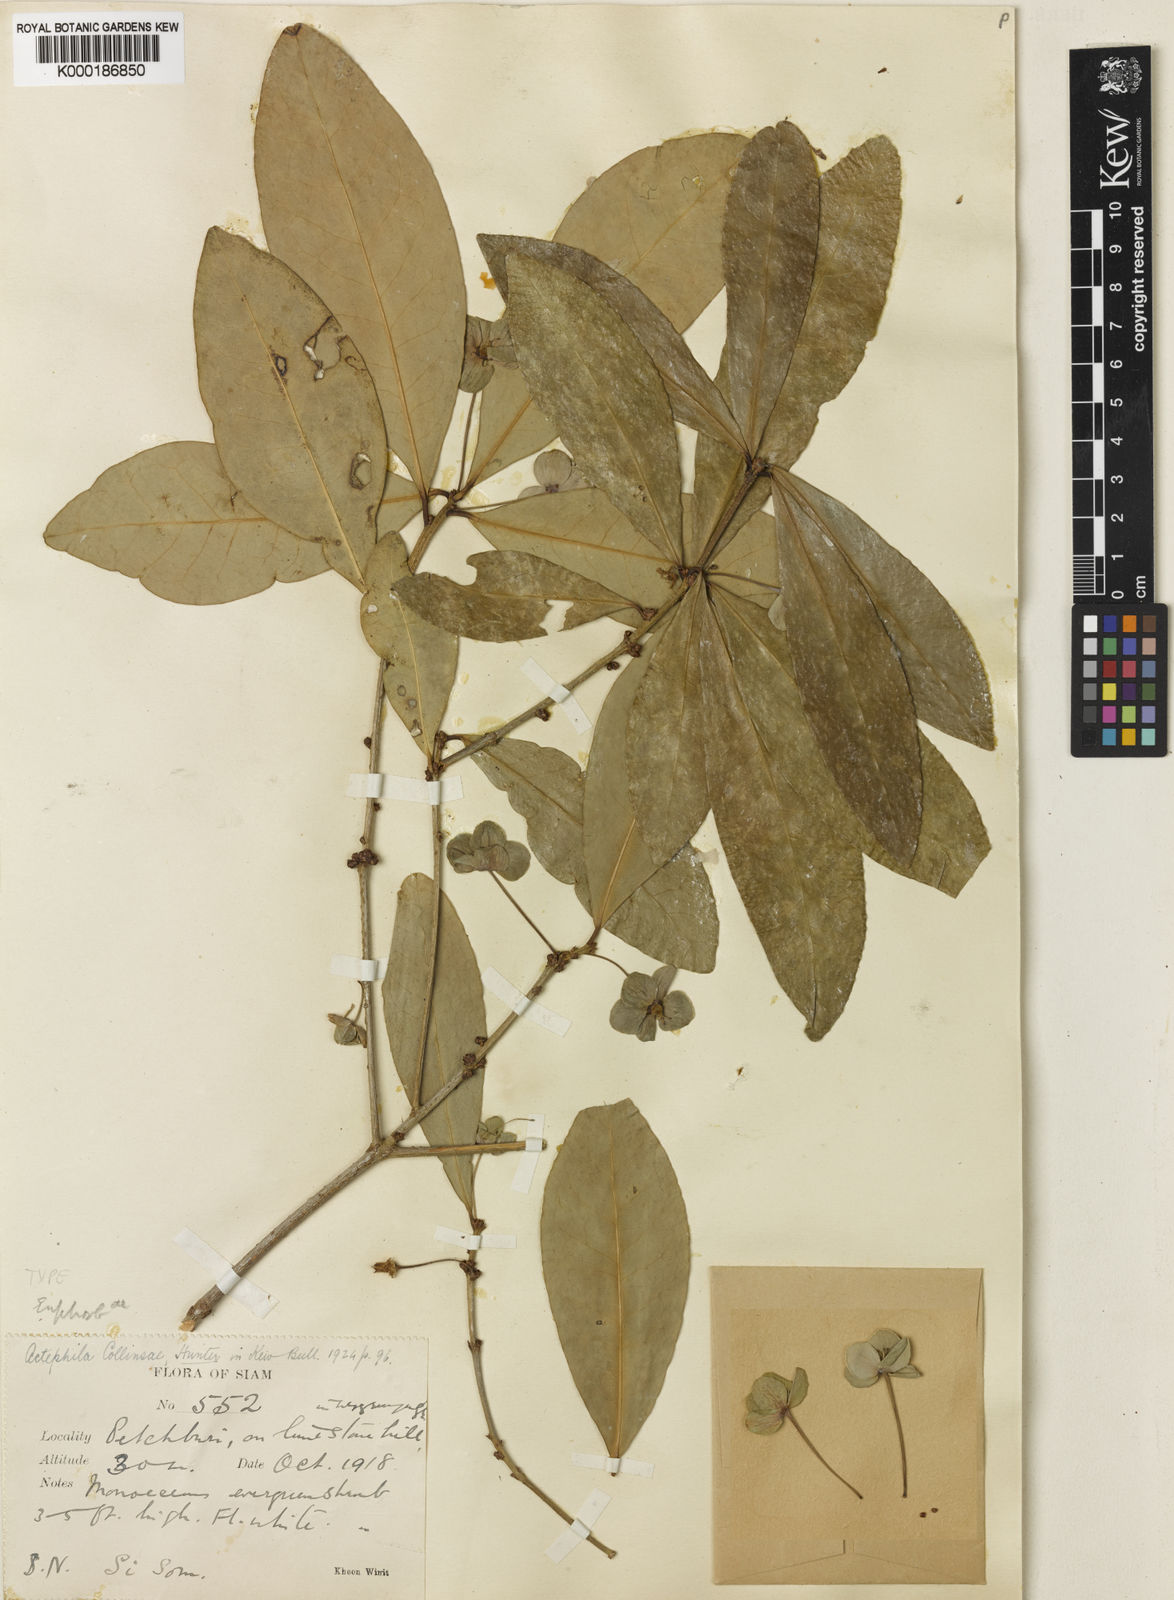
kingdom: Plantae
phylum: Tracheophyta
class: Magnoliopsida
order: Malpighiales
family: Phyllanthaceae
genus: Actephila
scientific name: Actephila collinsiae
